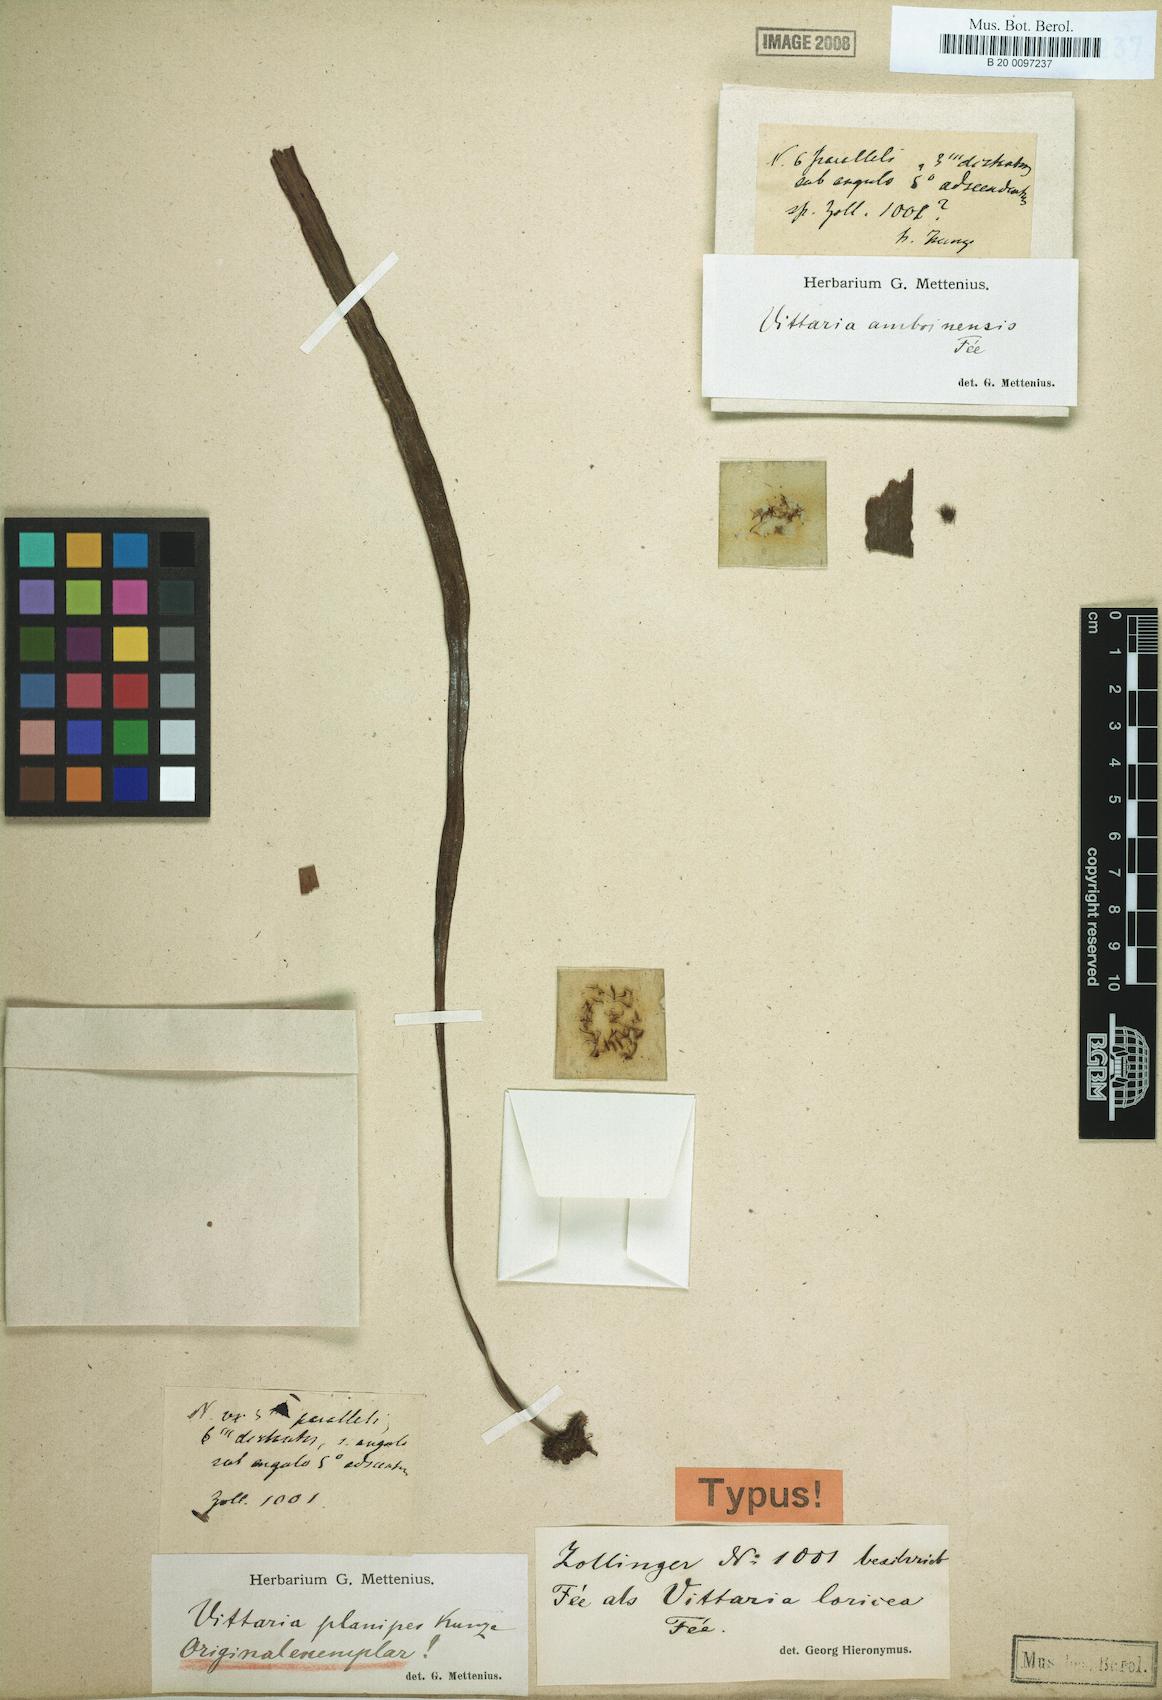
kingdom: Plantae
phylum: Tracheophyta
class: Polypodiopsida
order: Polypodiales
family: Pteridaceae
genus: Haplopteris
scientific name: Haplopteris zosterifolia
